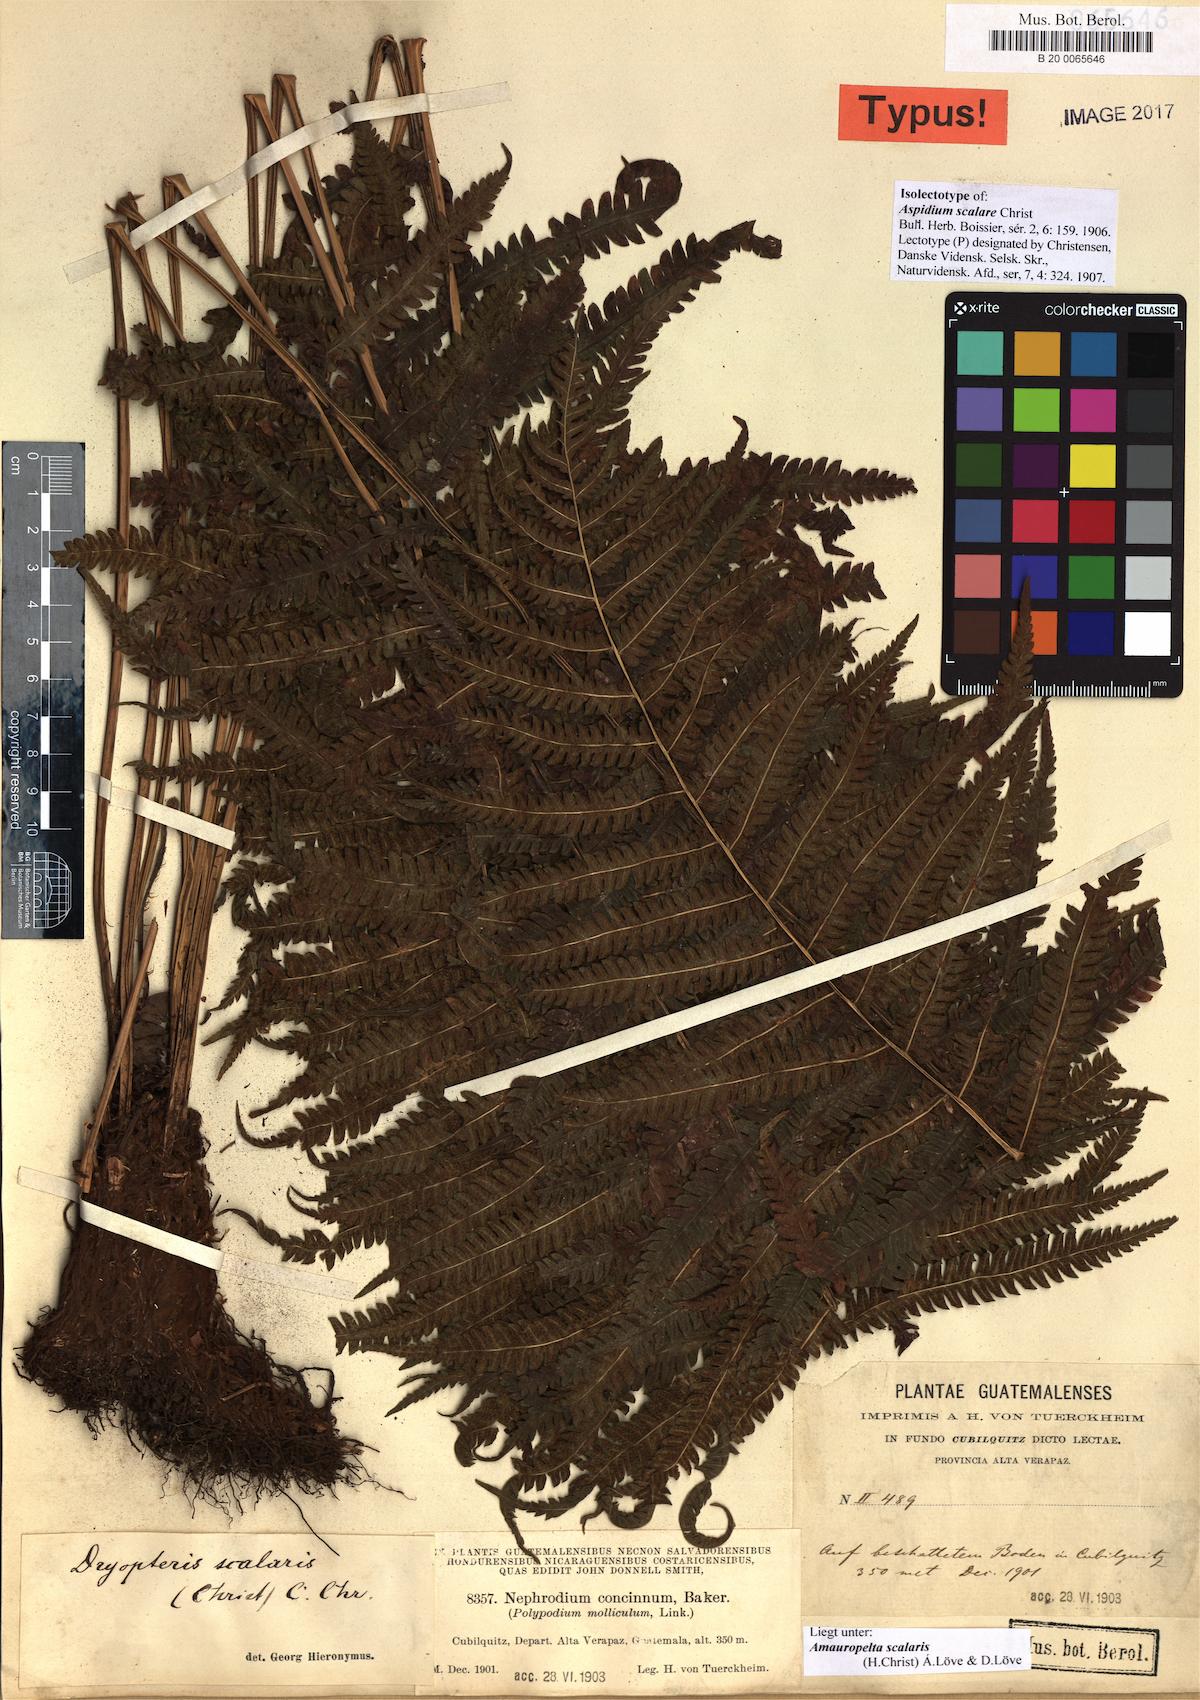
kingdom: Plantae
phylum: Tracheophyta
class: Polypodiopsida
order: Polypodiales
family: Thelypteridaceae
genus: Amauropelta
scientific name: Amauropelta scalaris
